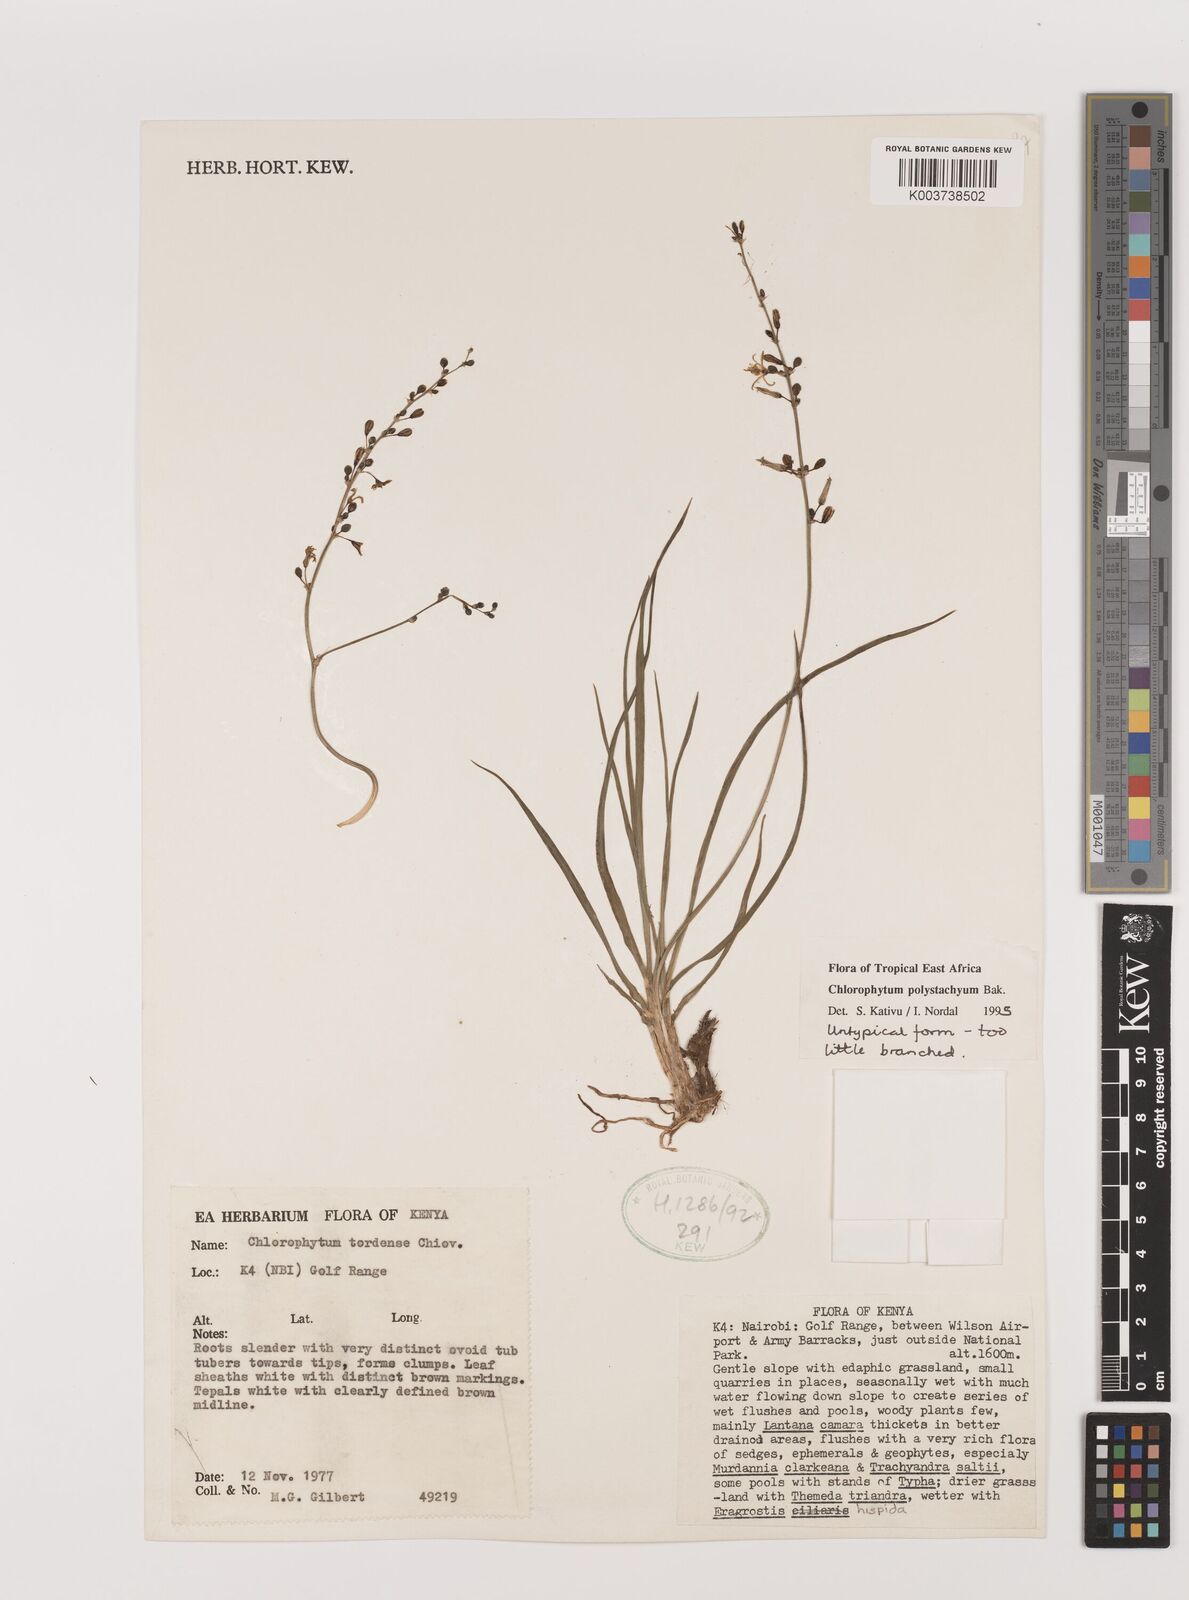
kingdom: Plantae
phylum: Tracheophyta
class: Liliopsida
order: Asparagales
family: Asparagaceae
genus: Chlorophytum
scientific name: Chlorophytum polystachys
